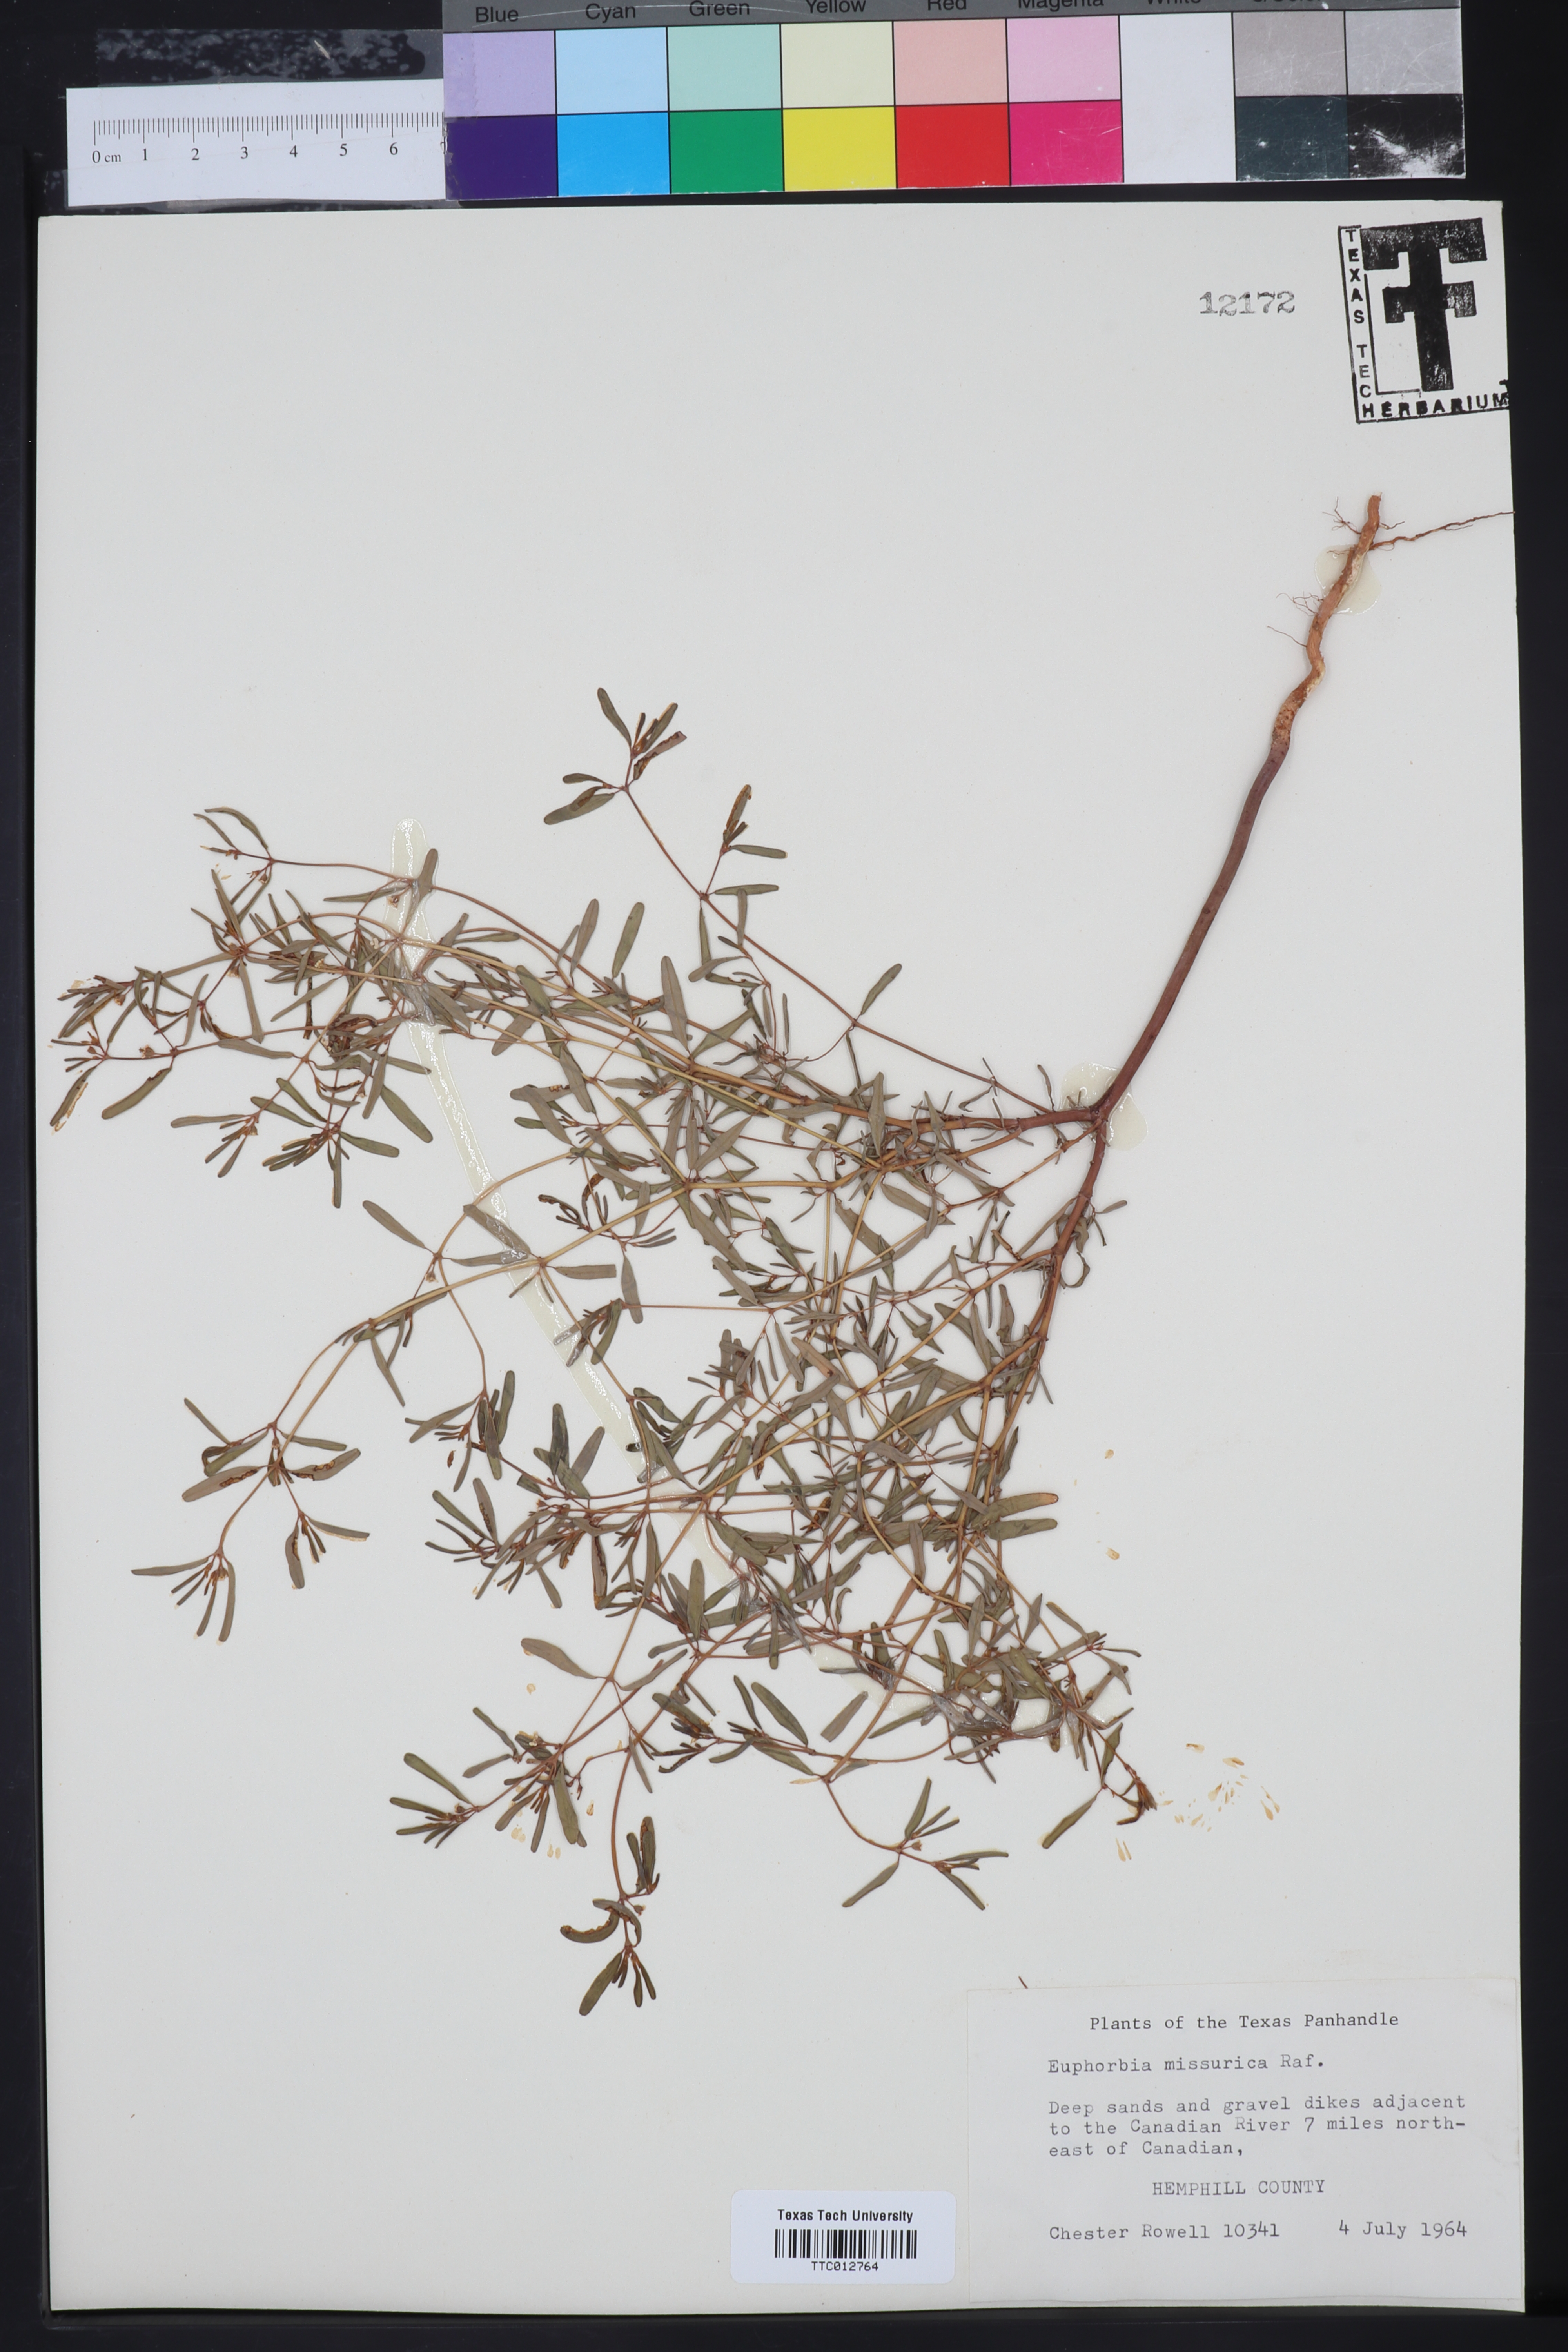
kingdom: Plantae
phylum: Tracheophyta
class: Magnoliopsida
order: Malpighiales
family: Euphorbiaceae
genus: Euphorbia
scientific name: Euphorbia missourica
